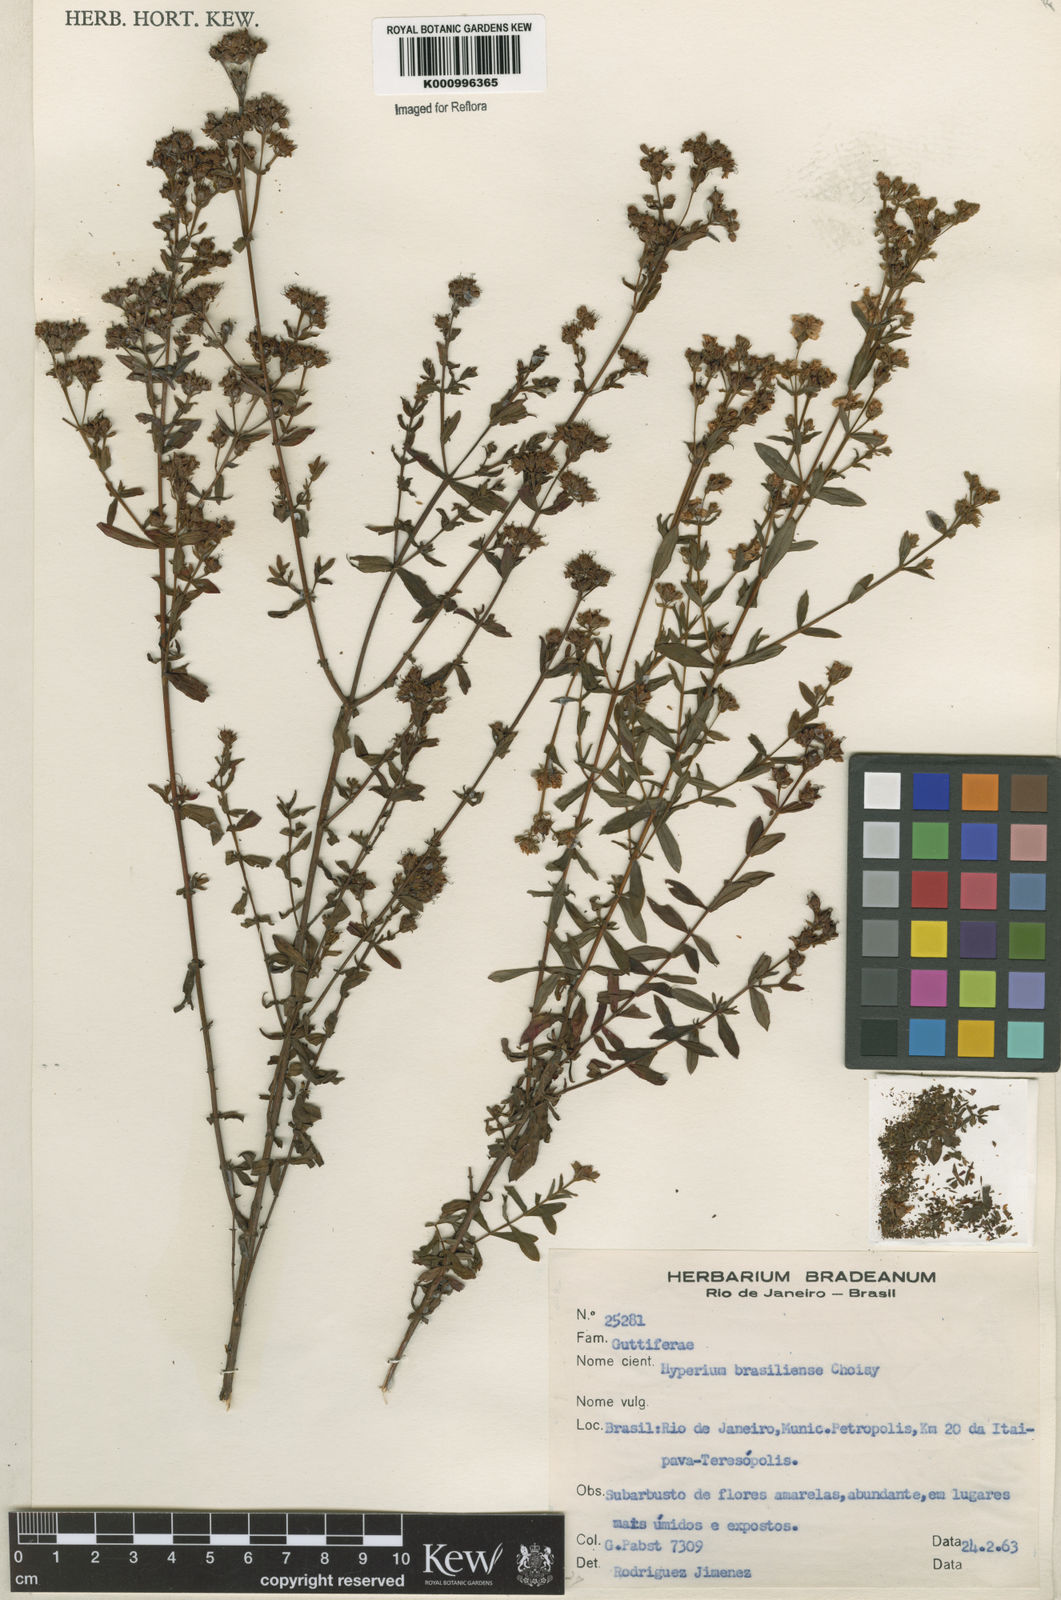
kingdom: Plantae
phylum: Tracheophyta
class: Magnoliopsida
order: Malpighiales
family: Hypericaceae
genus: Hypericum
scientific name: Hypericum brasiliense
